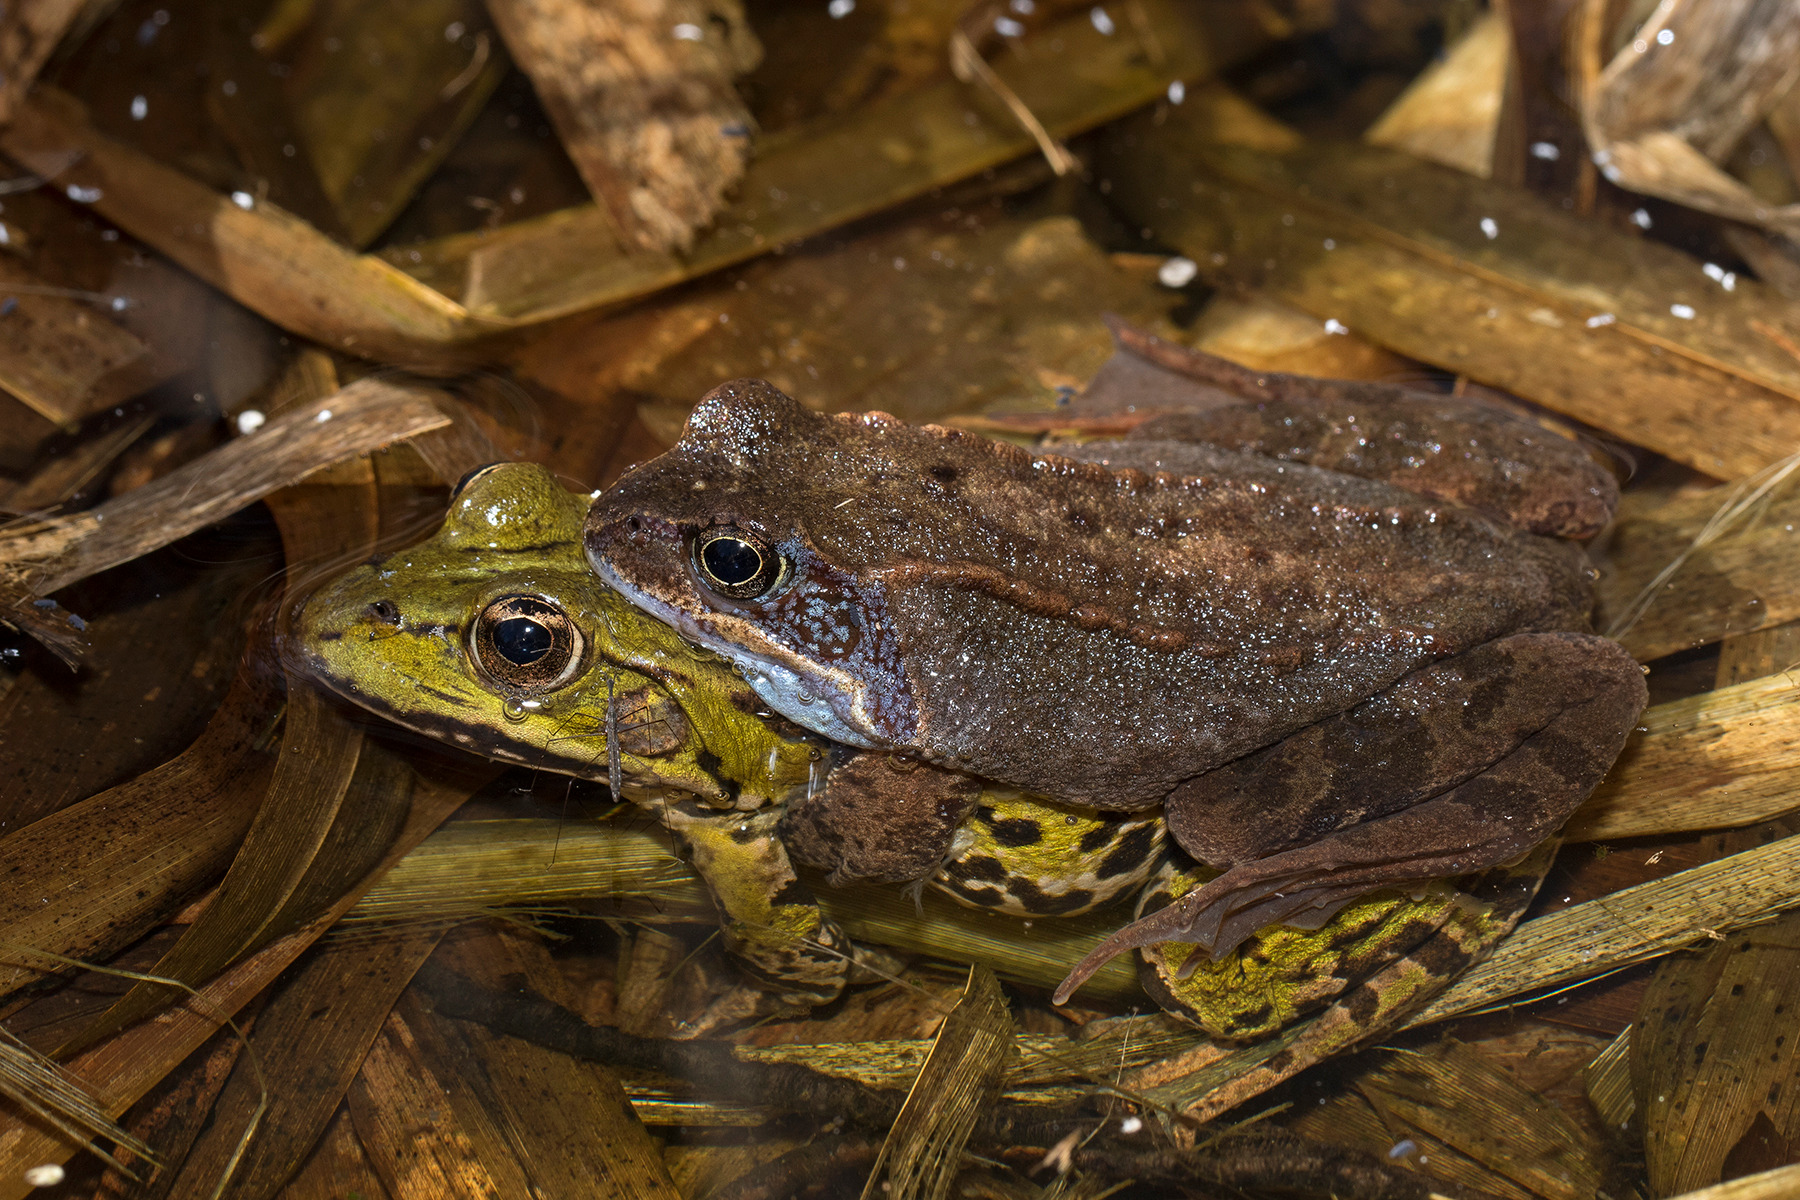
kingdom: Animalia
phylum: Chordata
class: Amphibia
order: Anura
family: Ranidae
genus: Pelophylax
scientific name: Pelophylax lessonae
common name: Grøn frø
